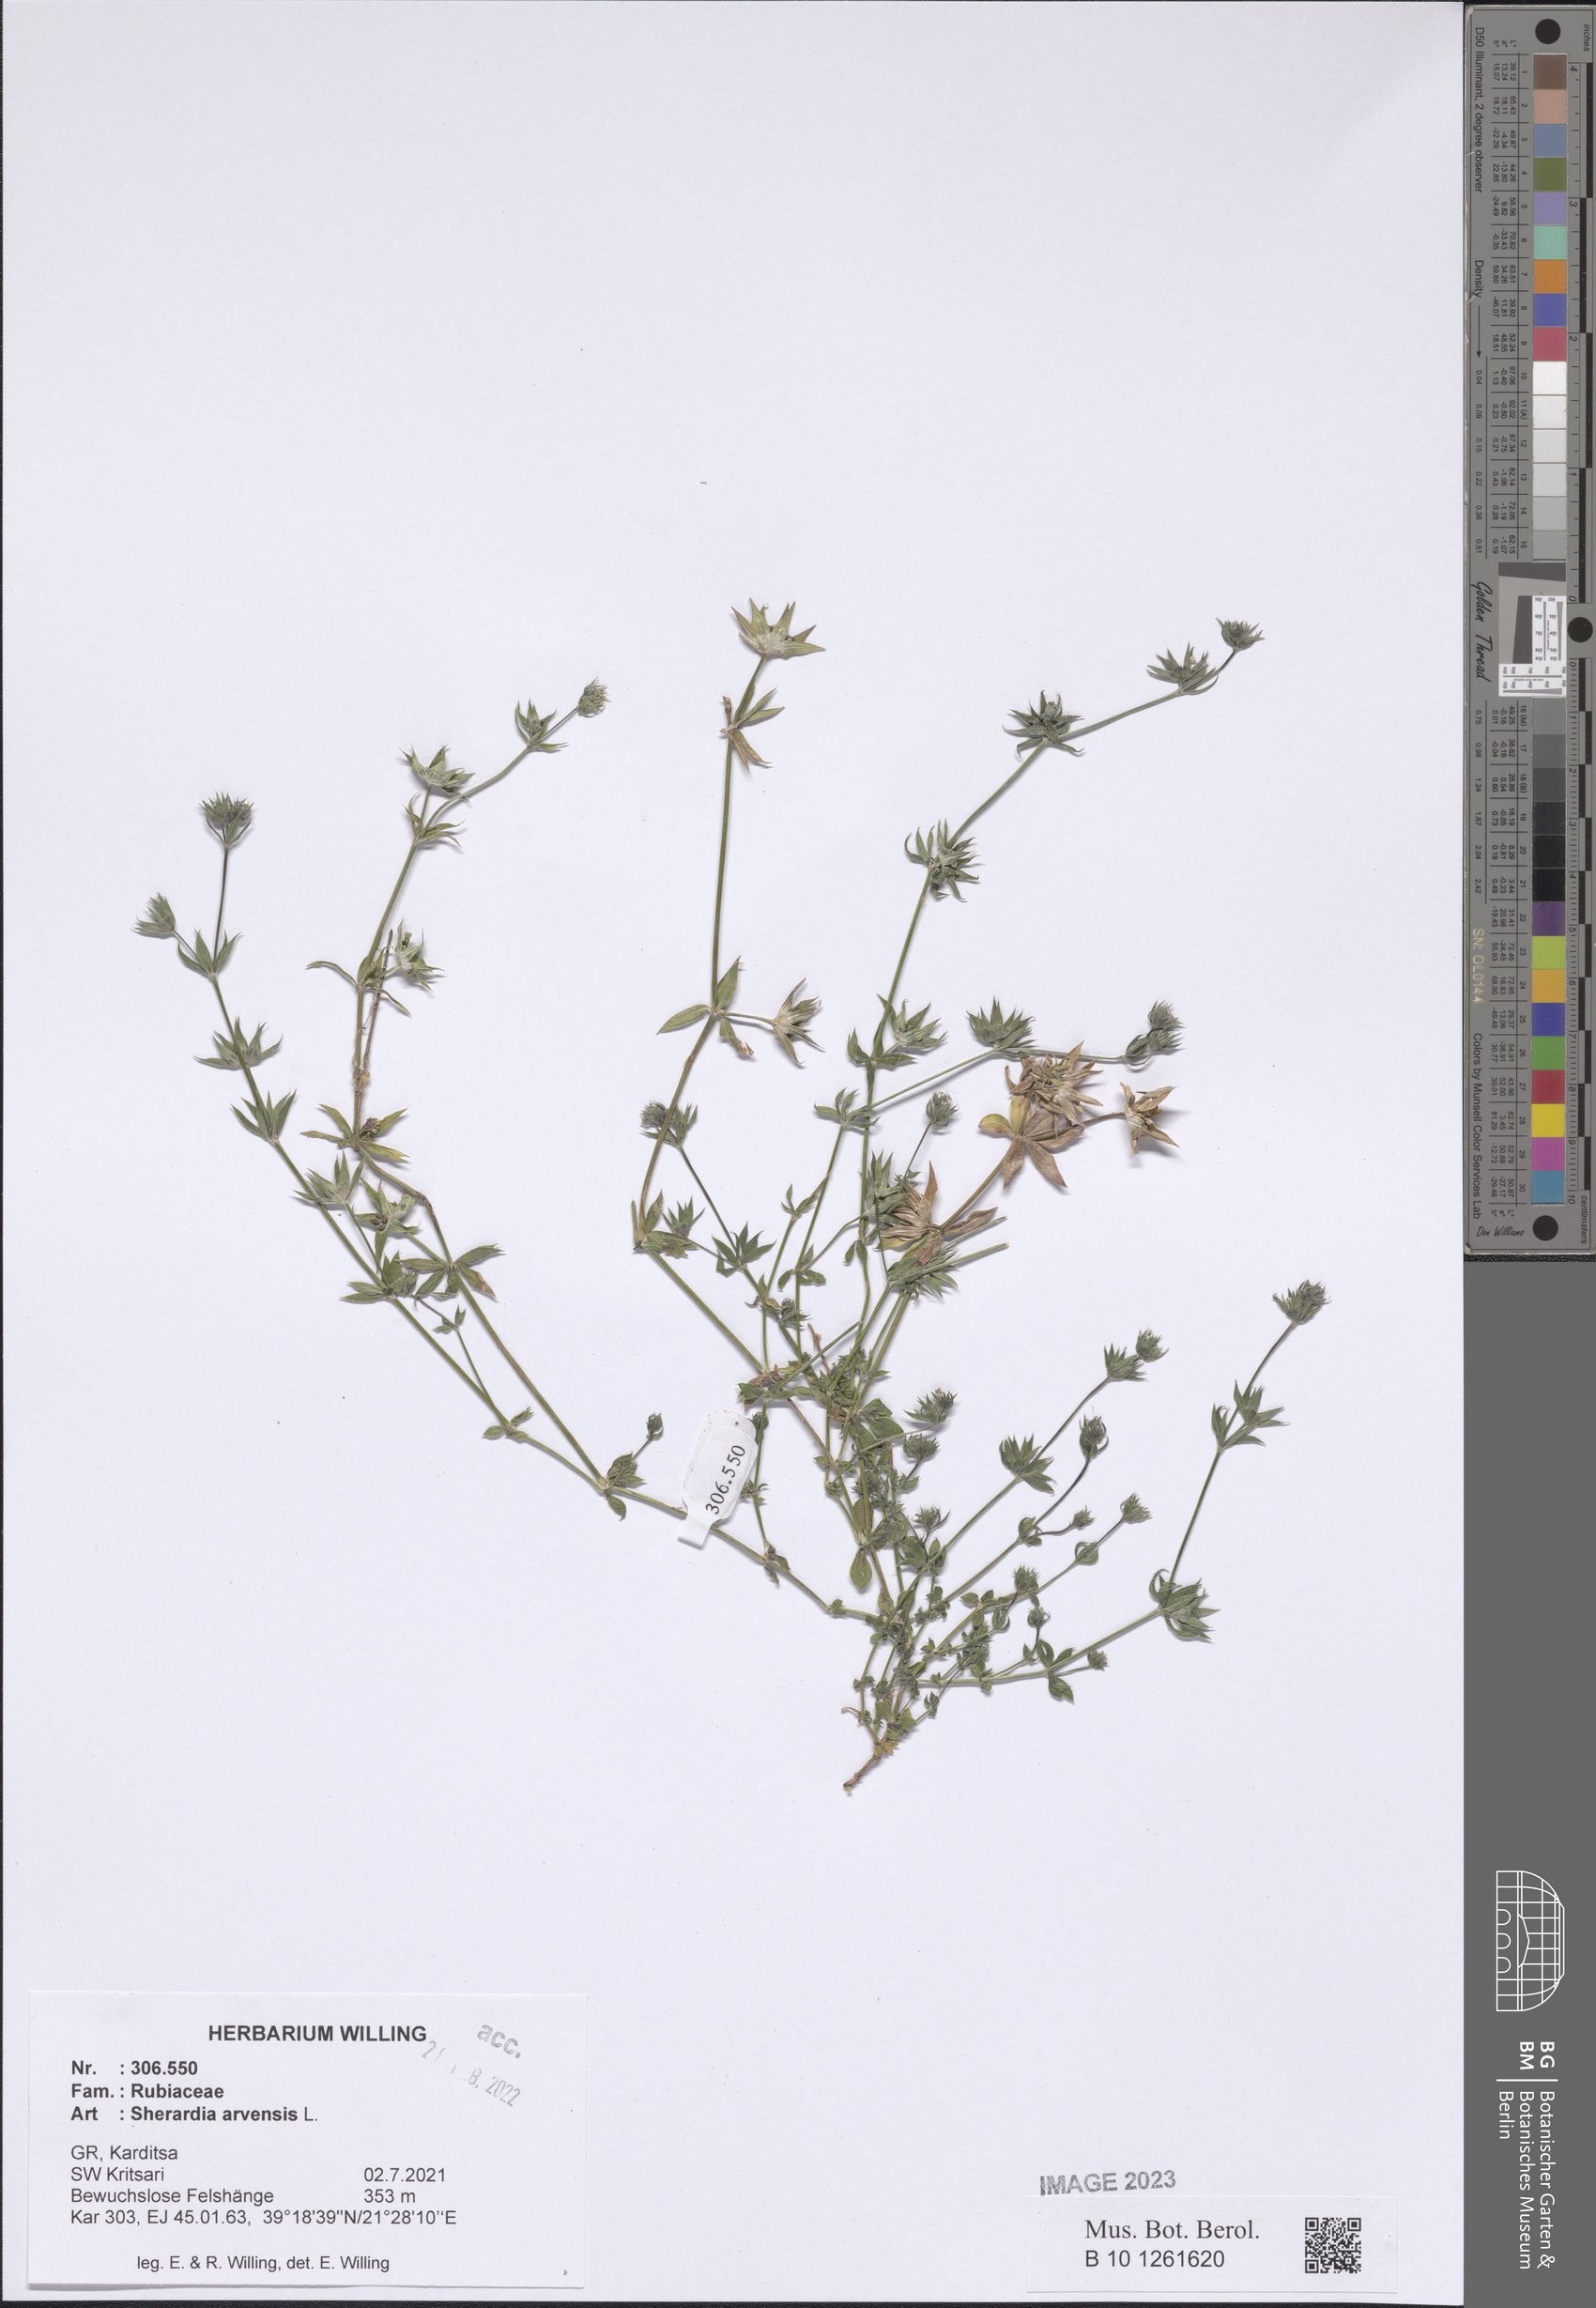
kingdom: Plantae
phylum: Tracheophyta
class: Magnoliopsida
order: Gentianales
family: Rubiaceae
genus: Sherardia
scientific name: Sherardia arvensis
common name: Field madder
